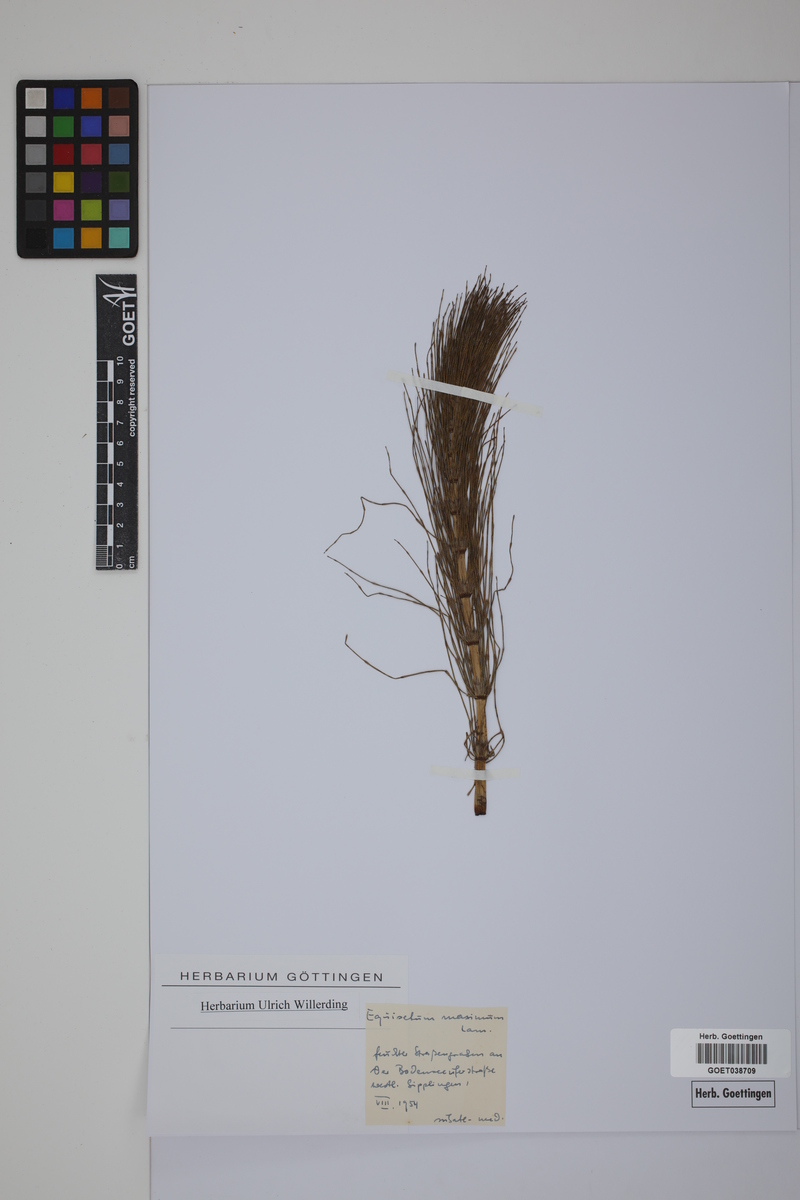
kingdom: Plantae
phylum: Tracheophyta
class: Polypodiopsida
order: Equisetales
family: Equisetaceae
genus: Equisetum
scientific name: Equisetum fluviatile
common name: Water horsetail
